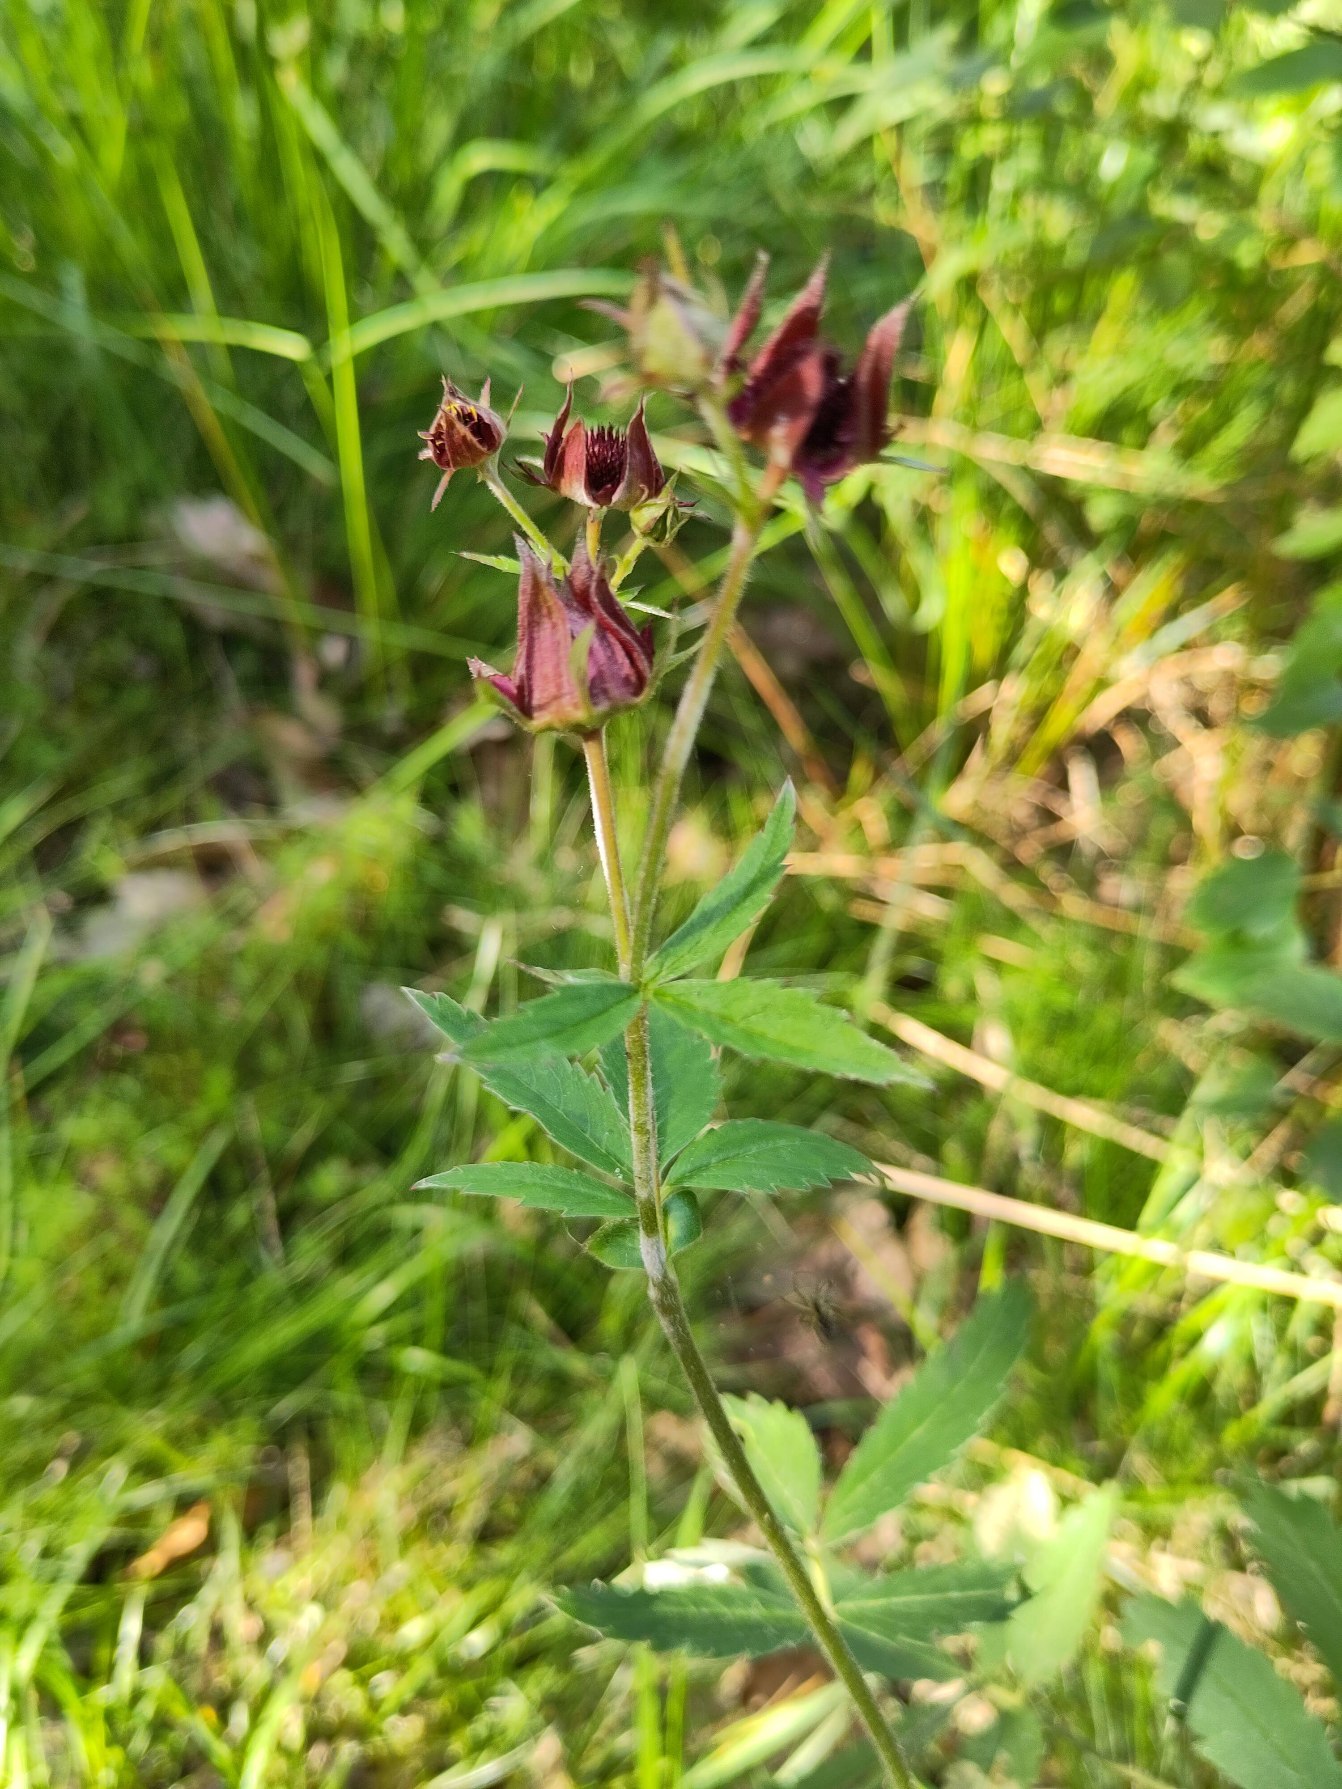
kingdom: Plantae
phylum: Tracheophyta
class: Magnoliopsida
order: Rosales
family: Rosaceae
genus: Comarum
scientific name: Comarum palustre
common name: Kragefod
